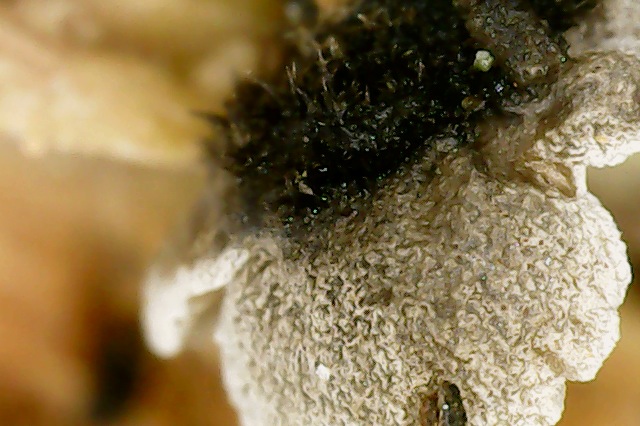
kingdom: Fungi
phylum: Basidiomycota
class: Agaricomycetes
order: Agaricales
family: Pleurotaceae
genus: Resupinatus
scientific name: Resupinatus trichotis
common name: mørkfiltet barkhat
